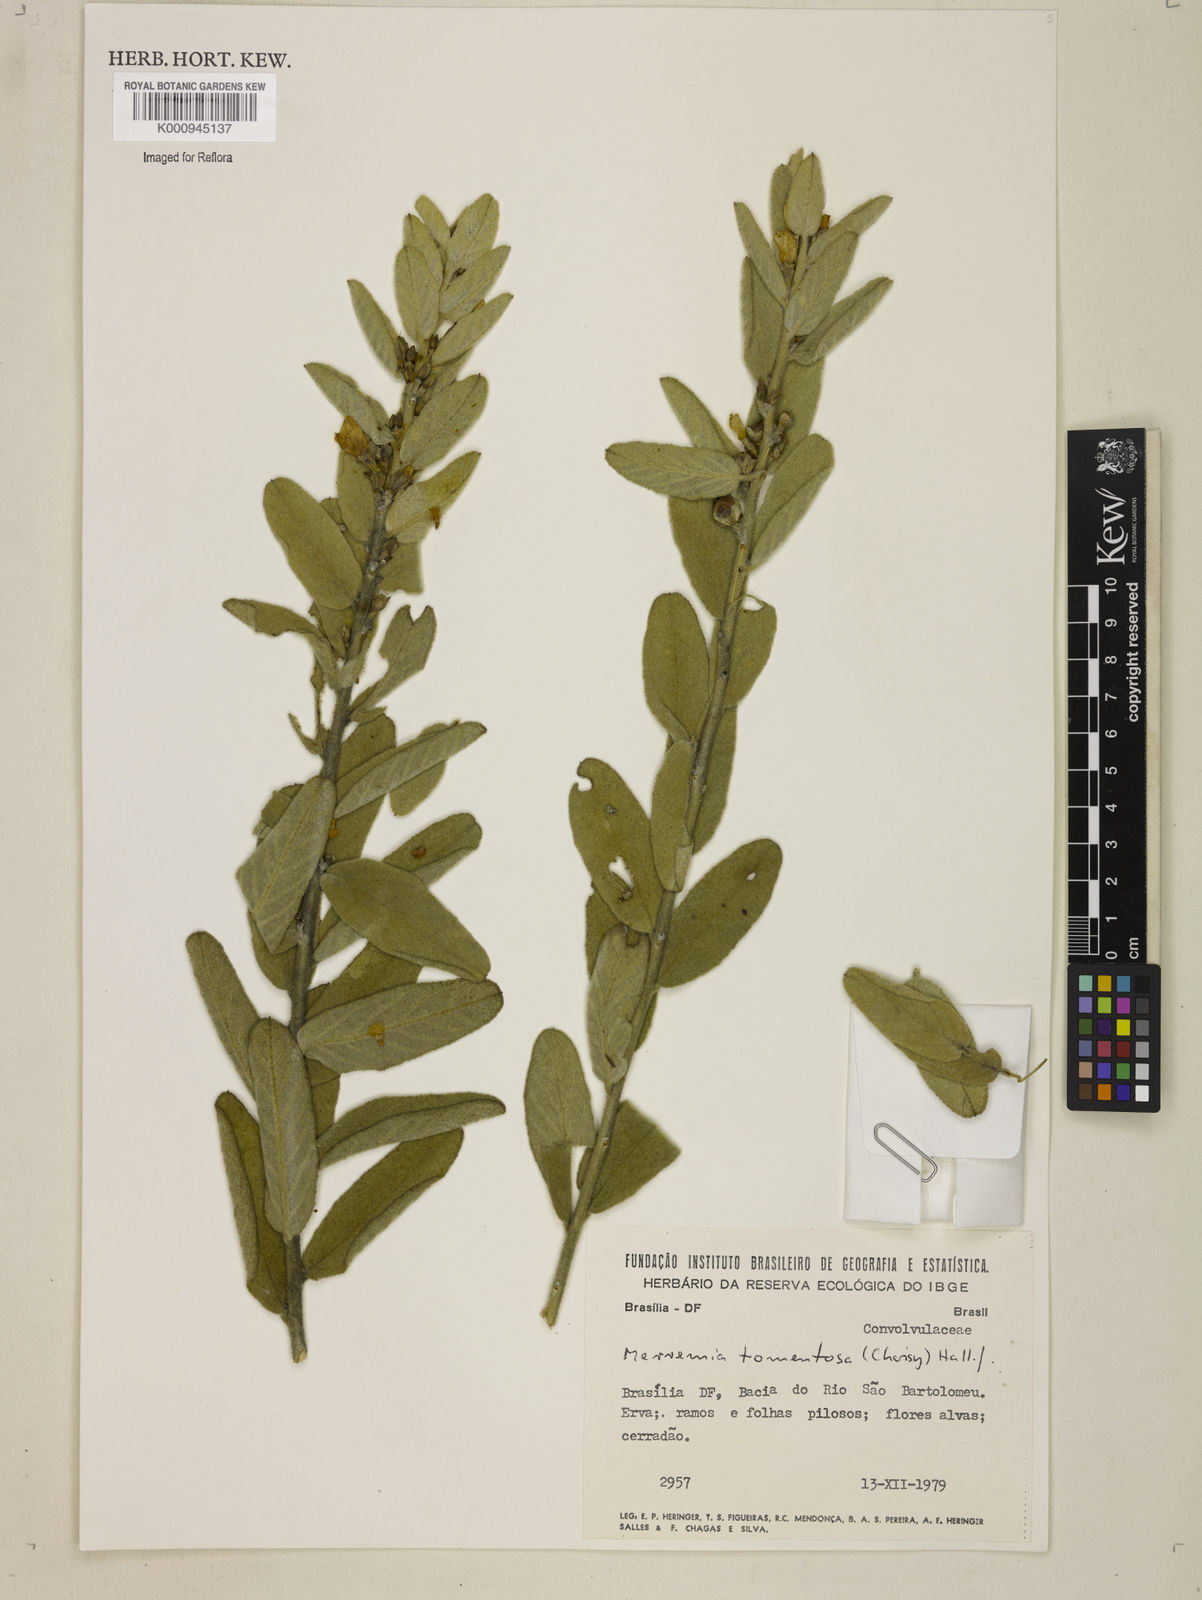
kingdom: Plantae
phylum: Tracheophyta
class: Magnoliopsida
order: Solanales
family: Convolvulaceae
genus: Distimake
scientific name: Distimake tomentosus
